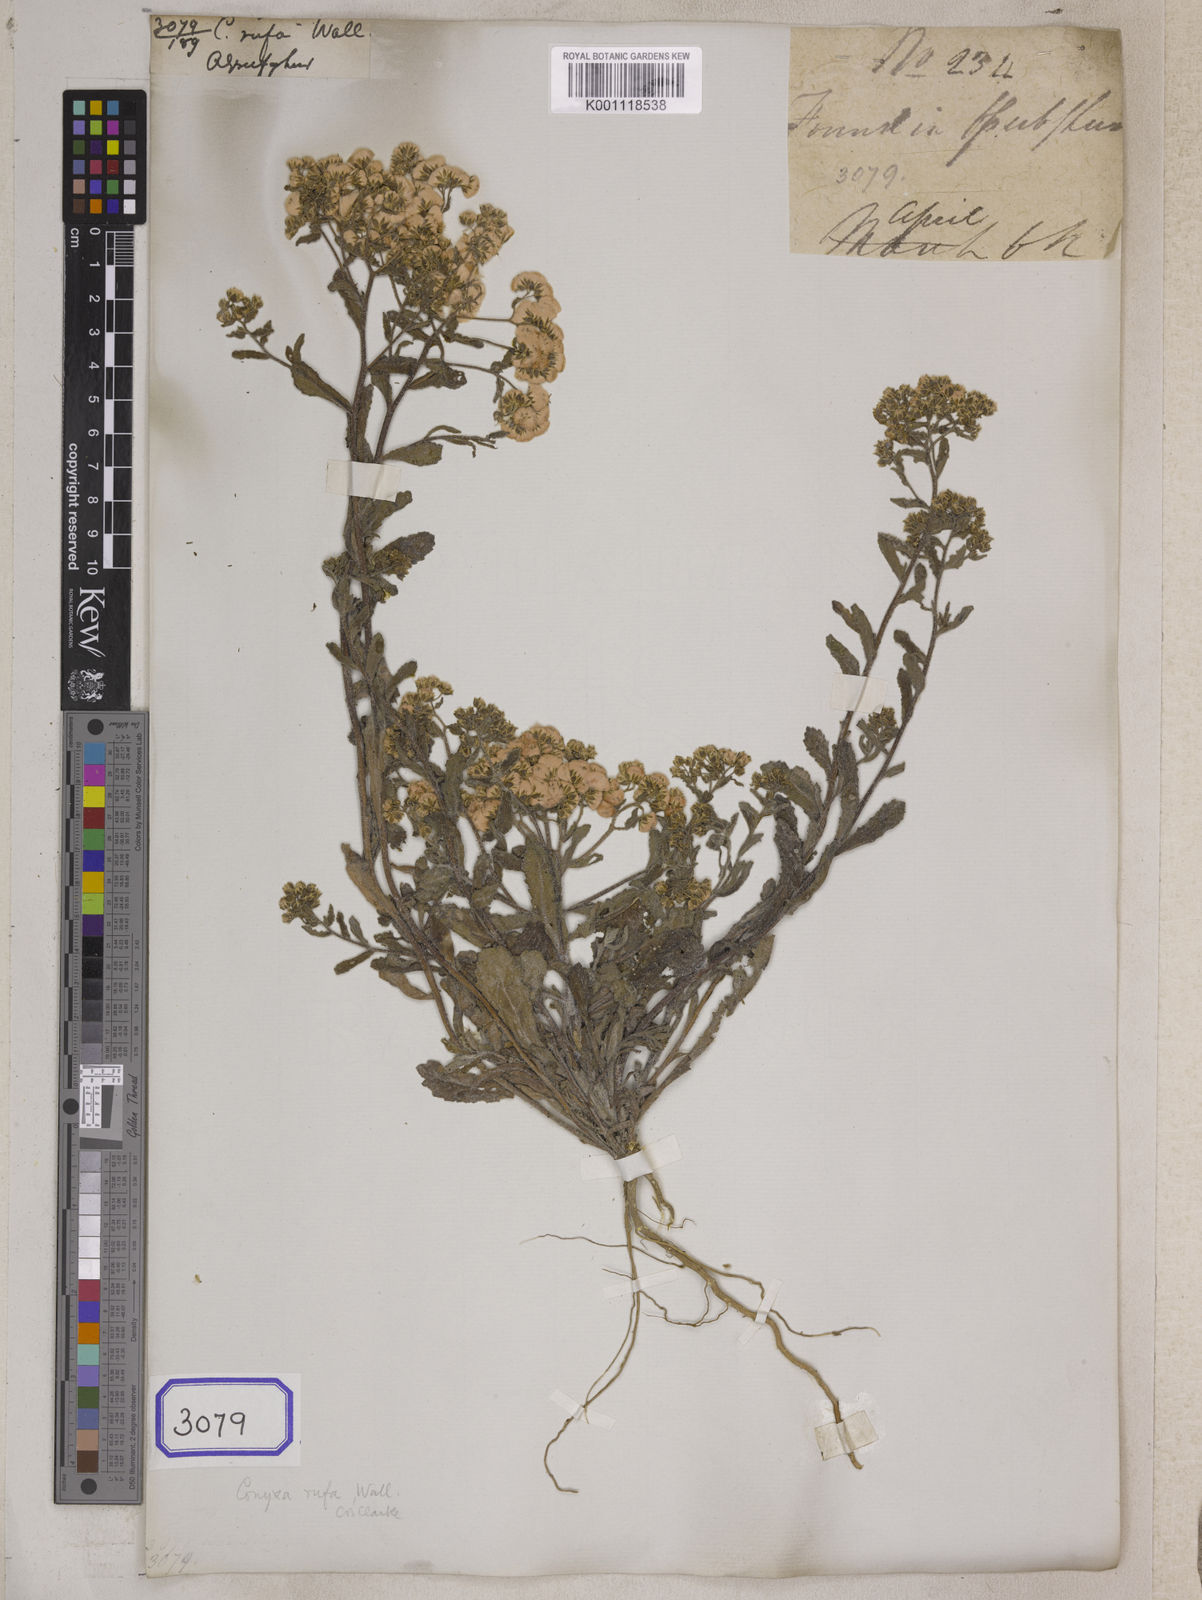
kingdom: Plantae
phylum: Tracheophyta
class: Magnoliopsida
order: Asterales
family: Asteraceae
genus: Eschenbachia
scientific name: Eschenbachia rufa
